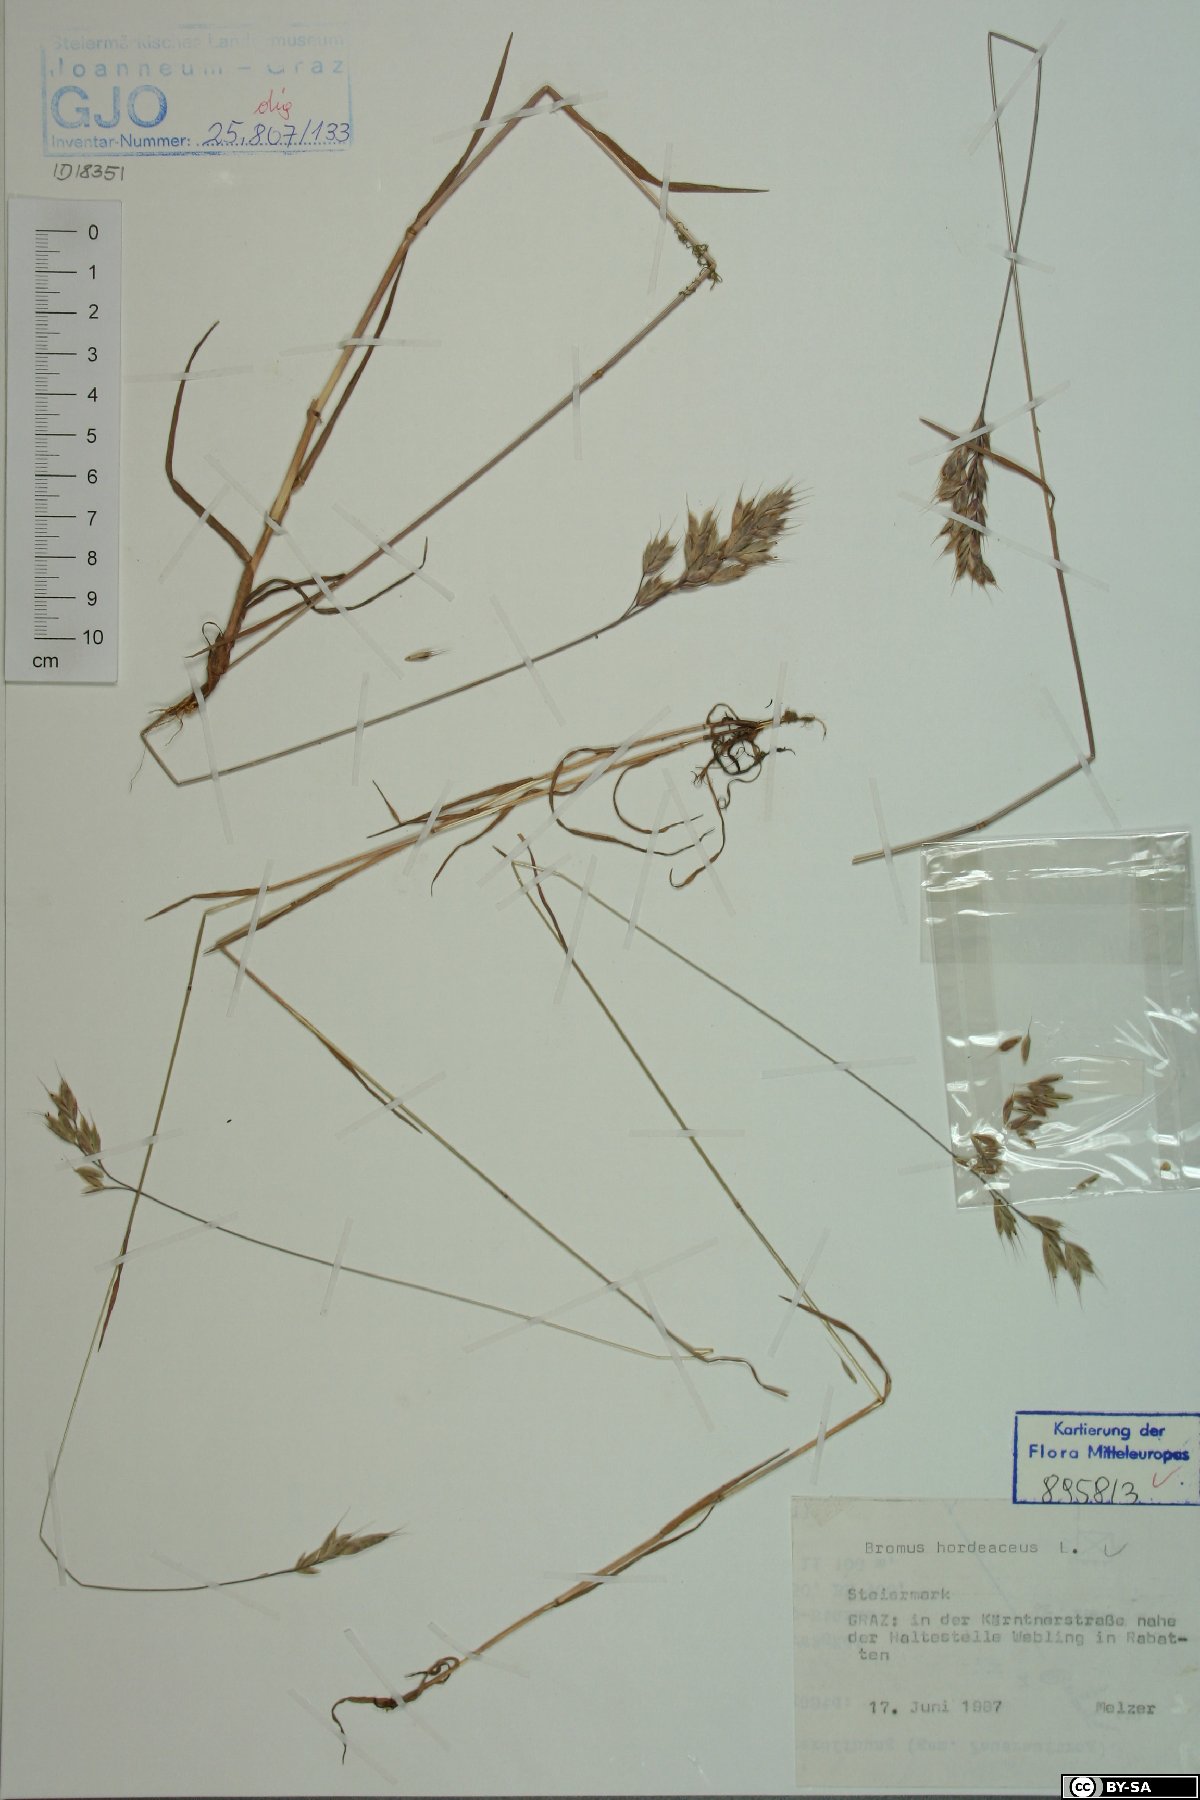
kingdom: Plantae
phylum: Tracheophyta
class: Liliopsida
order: Poales
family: Poaceae
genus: Bromus
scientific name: Bromus hordeaceus
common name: Soft brome
